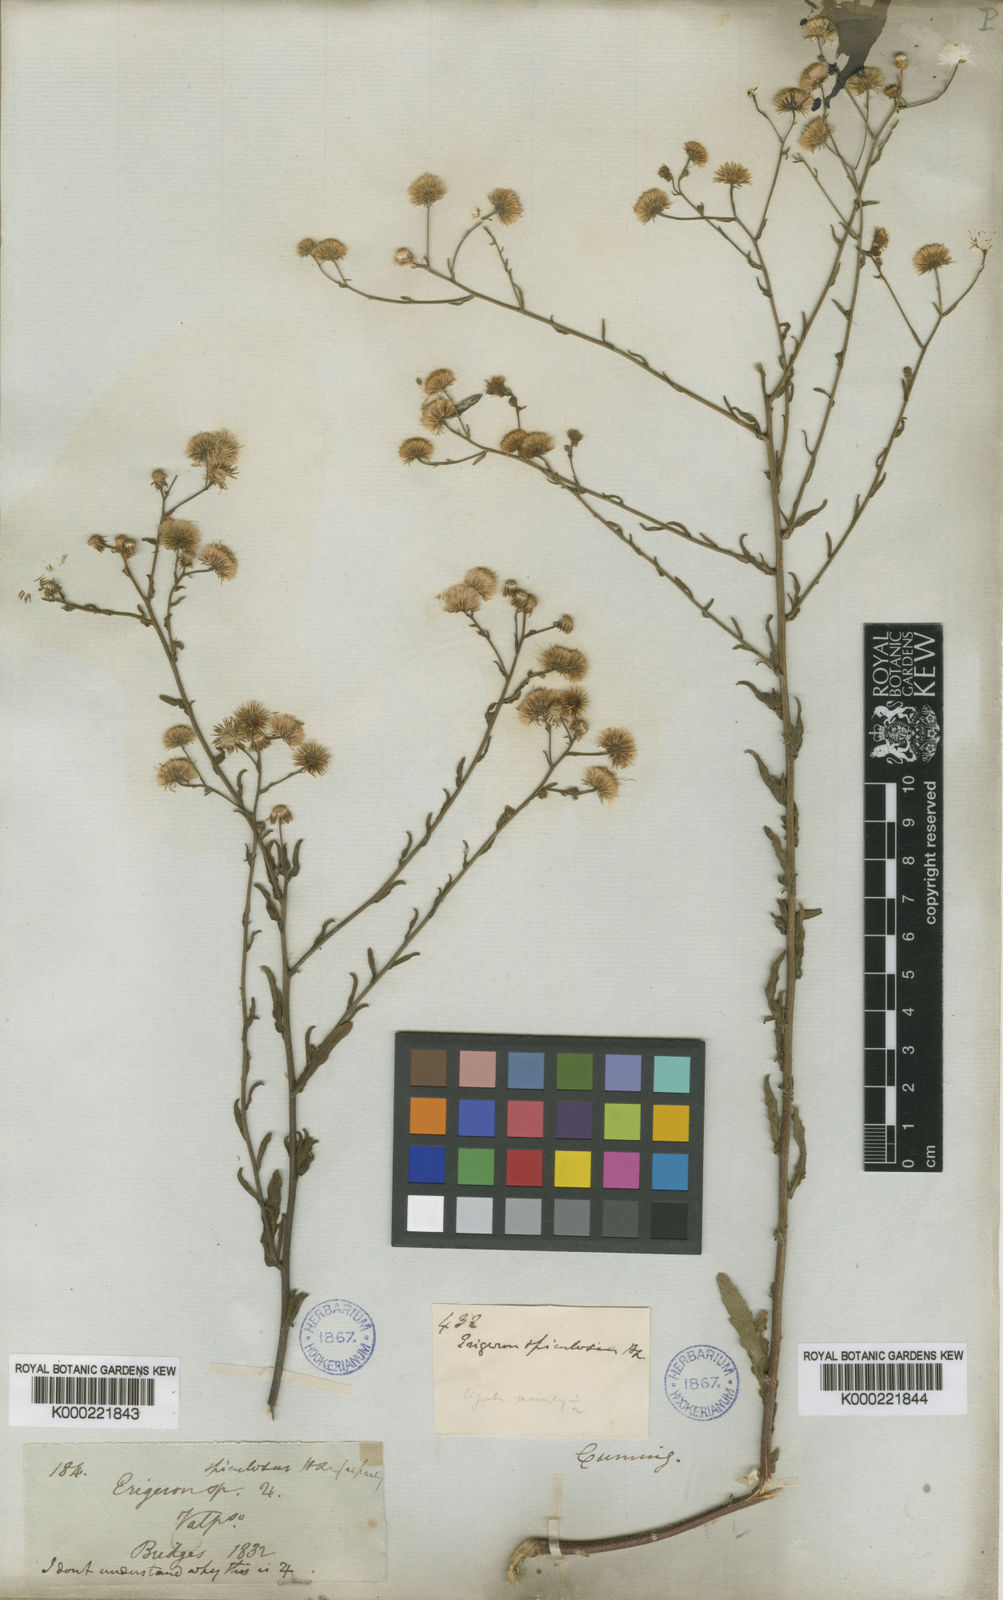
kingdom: Plantae
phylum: Tracheophyta
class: Magnoliopsida
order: Asterales
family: Asteraceae
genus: Erigeron
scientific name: Erigeron spiculosus
